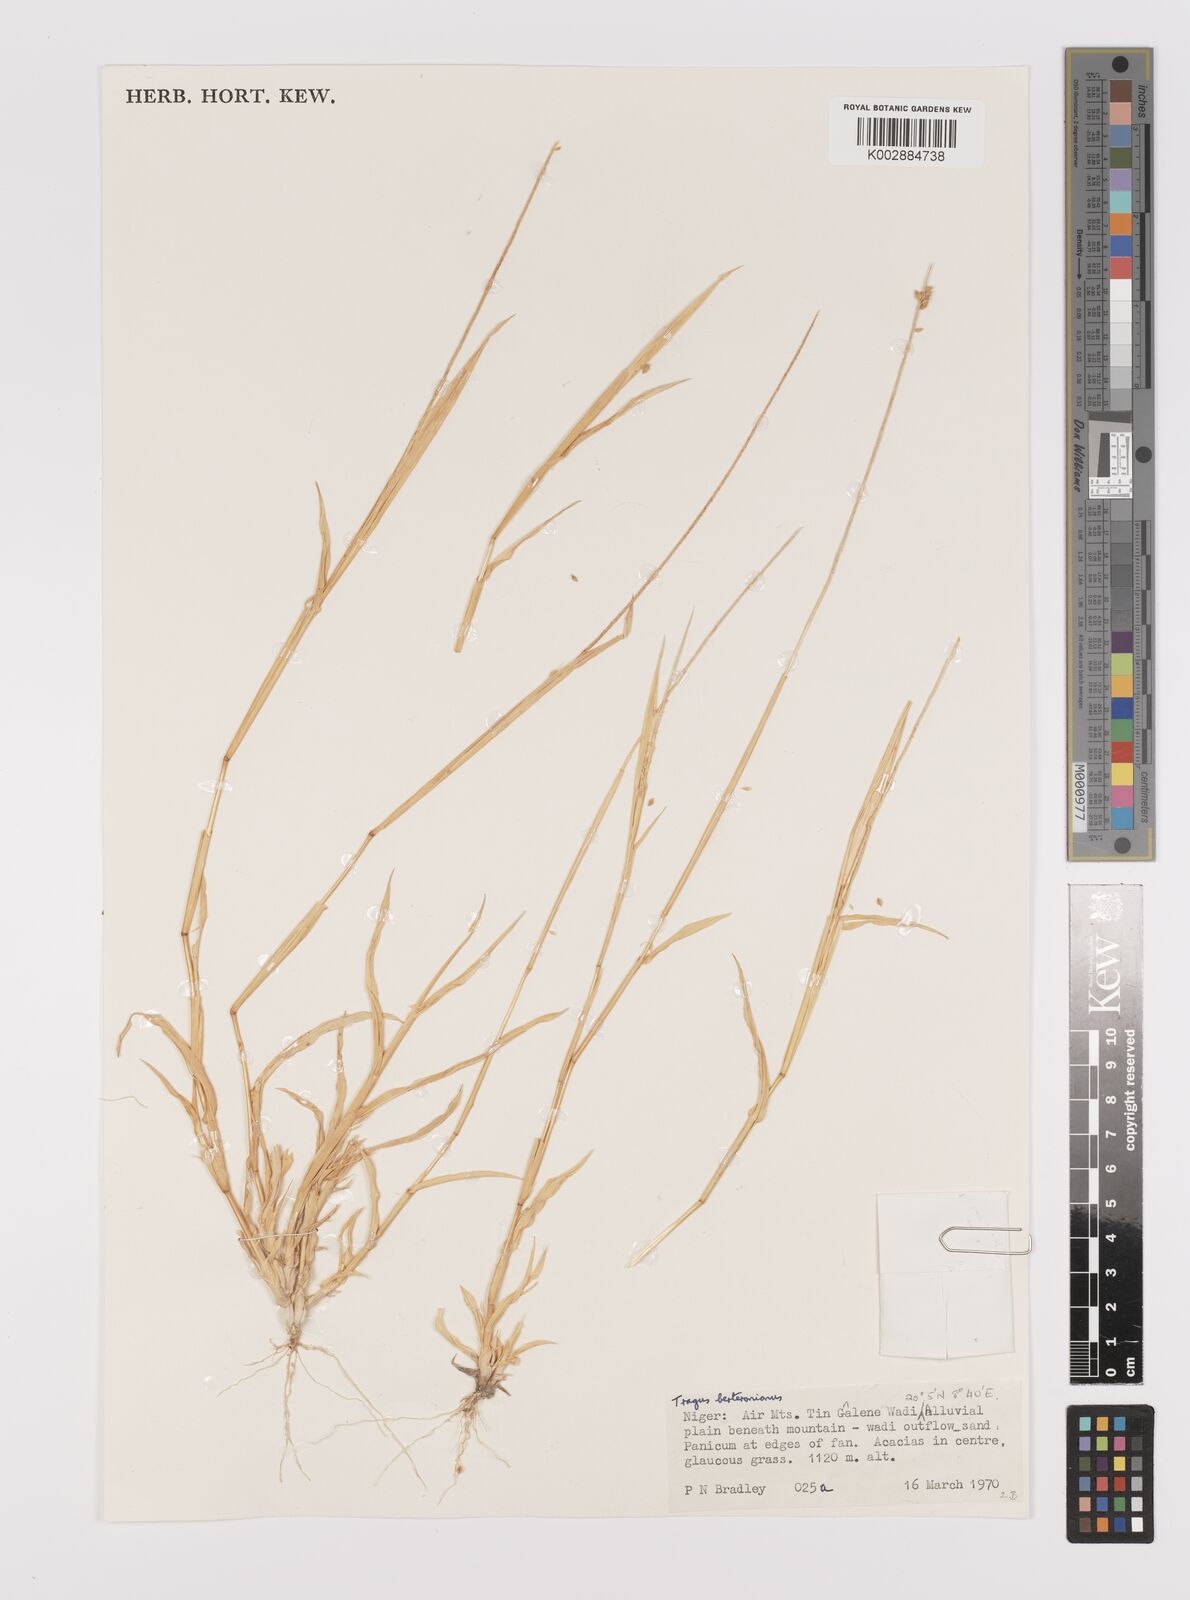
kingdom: Plantae
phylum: Tracheophyta
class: Liliopsida
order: Poales
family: Poaceae
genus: Tragus
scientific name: Tragus berteronianus
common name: African bur-grass
